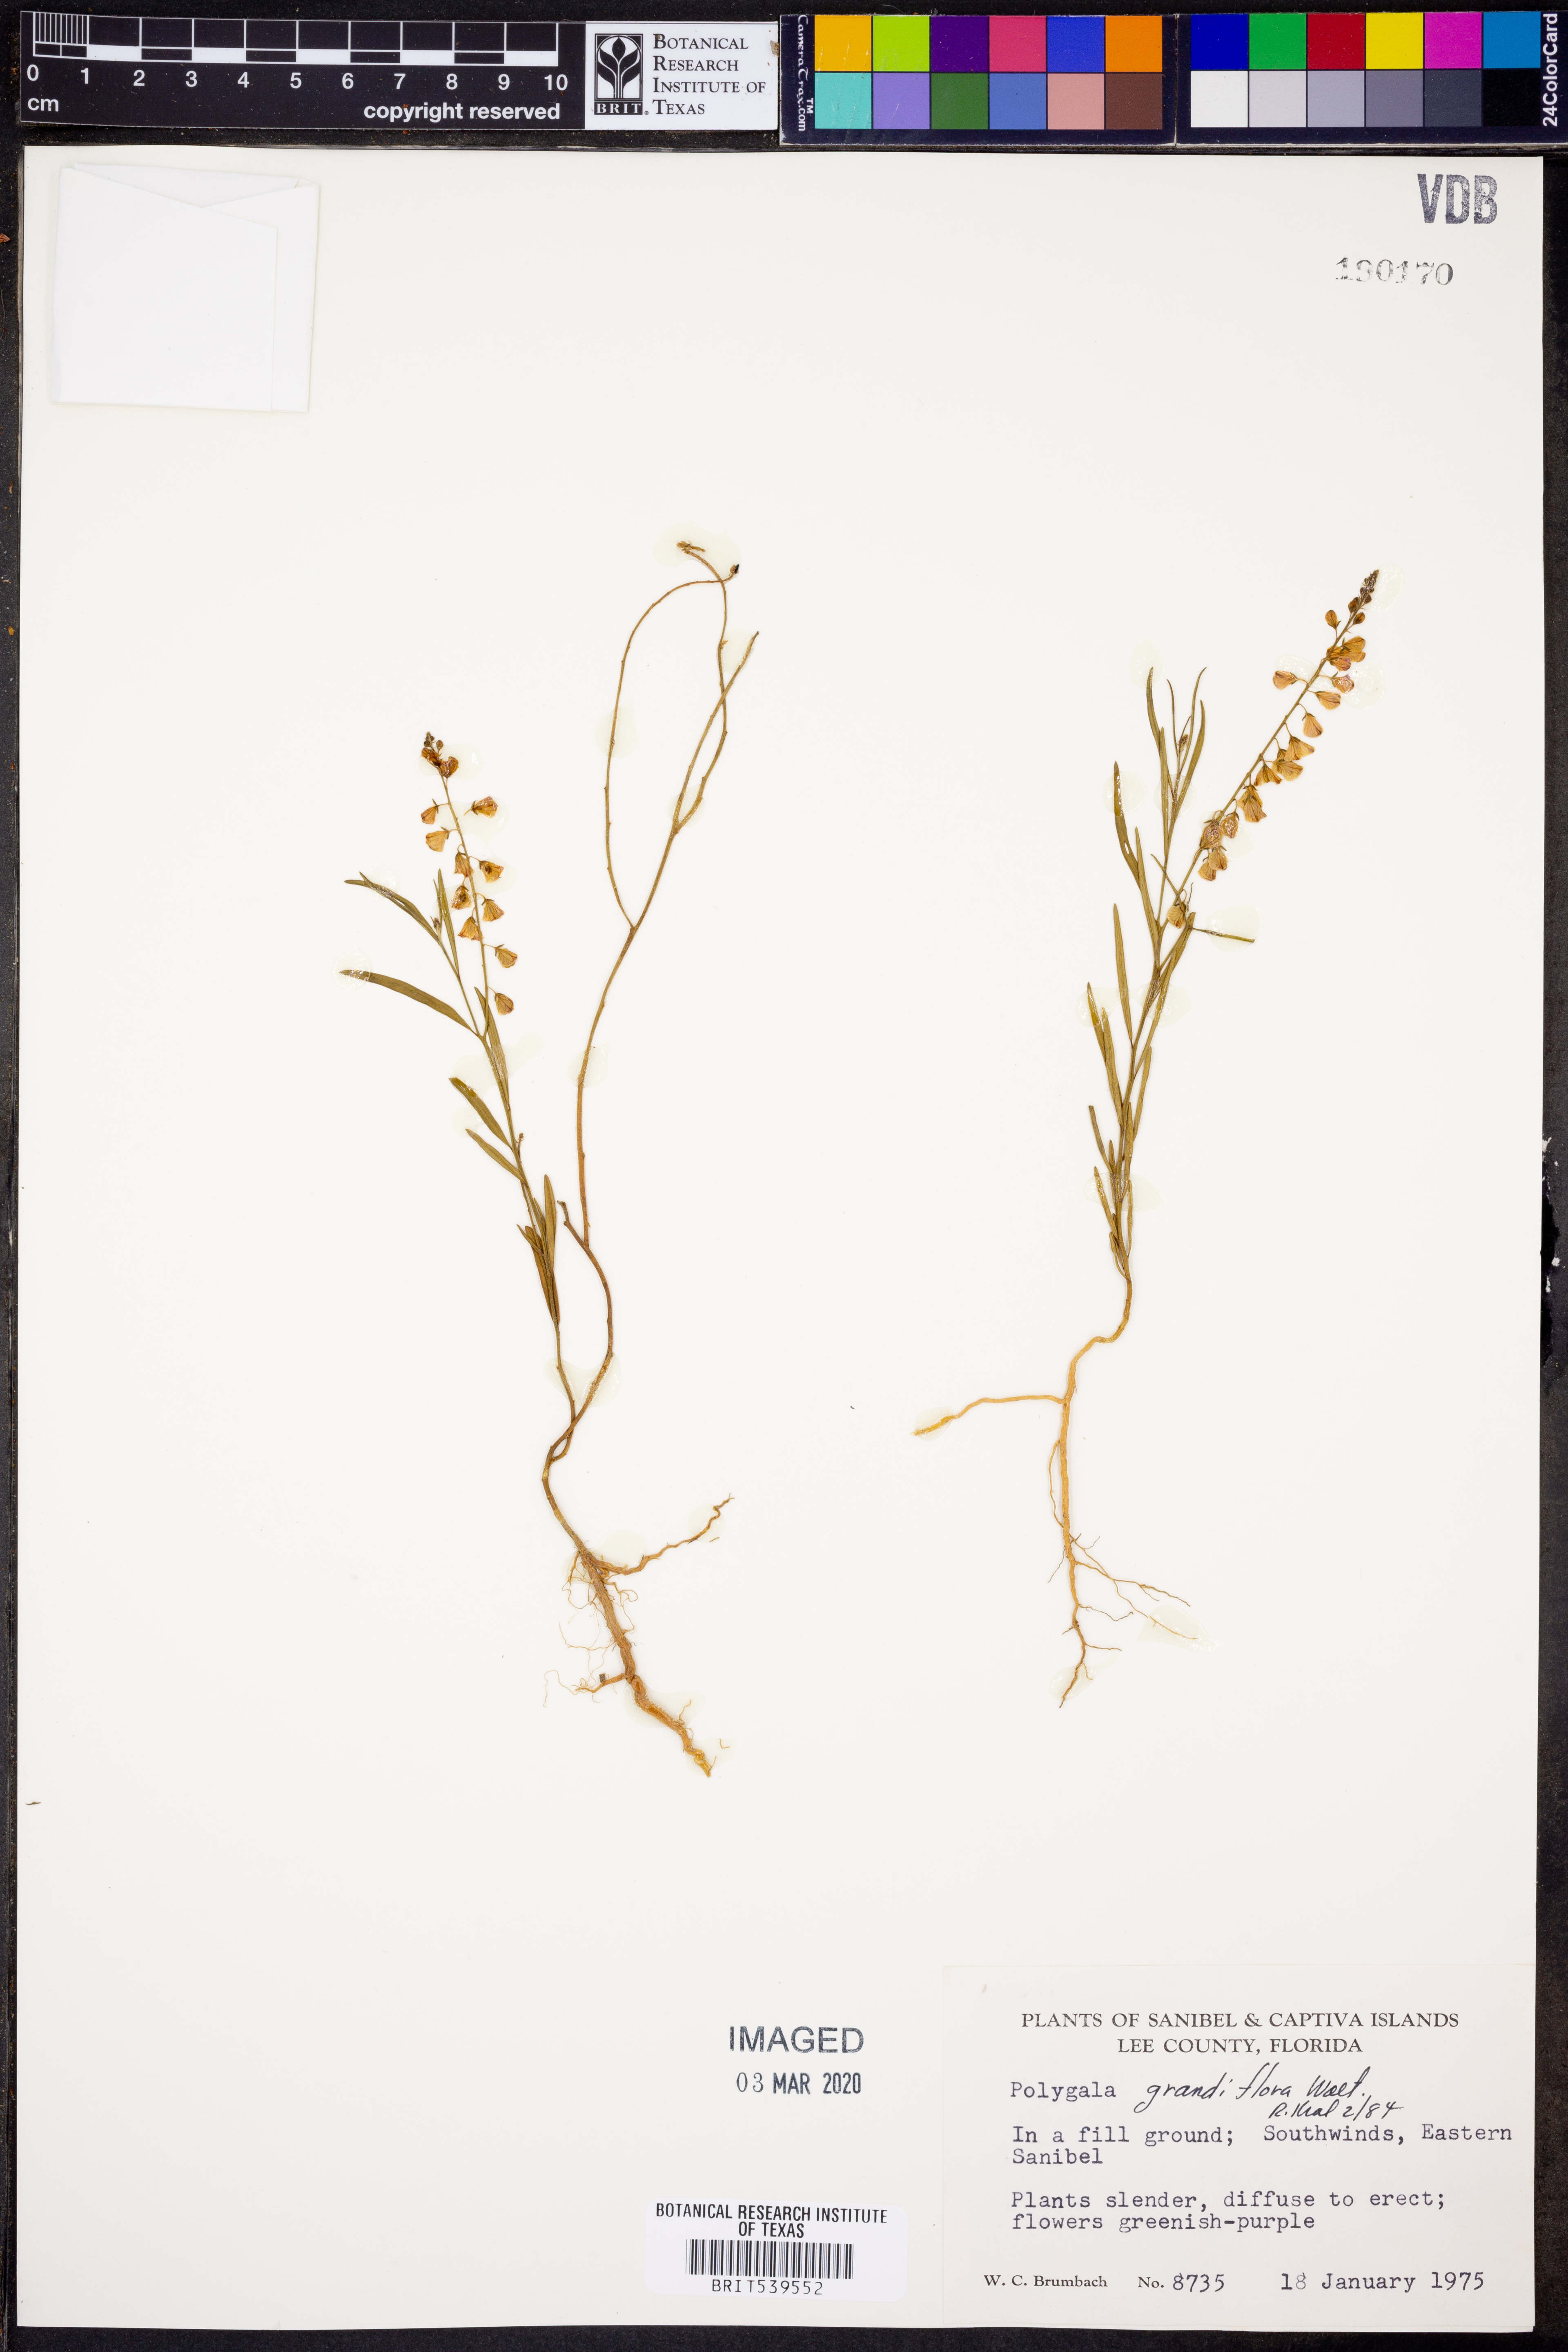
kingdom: Plantae
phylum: Tracheophyta
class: Magnoliopsida
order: Fabales
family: Polygalaceae
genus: Asemeia
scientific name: Asemeia grandiflora
